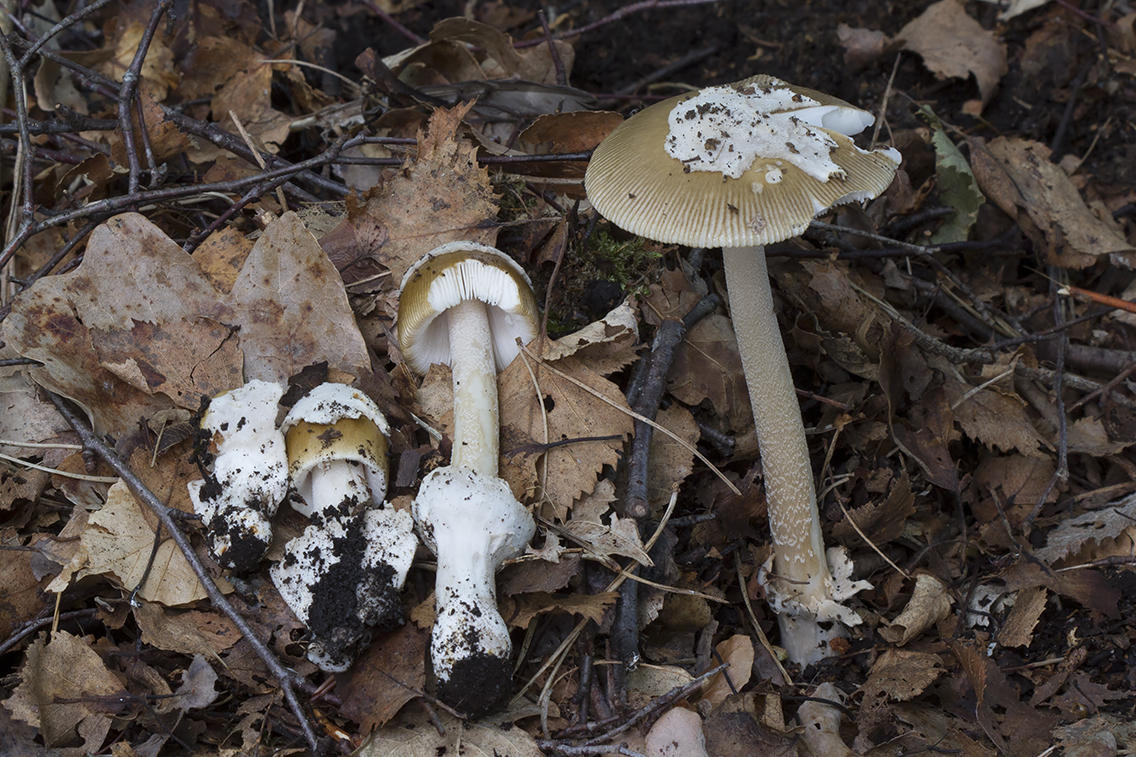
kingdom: Fungi
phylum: Basidiomycota
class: Agaricomycetes
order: Agaricales
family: Amanitaceae
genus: Amanita
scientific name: Amanita olivaceogrisea
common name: olivengrå kam-fluesvamp
